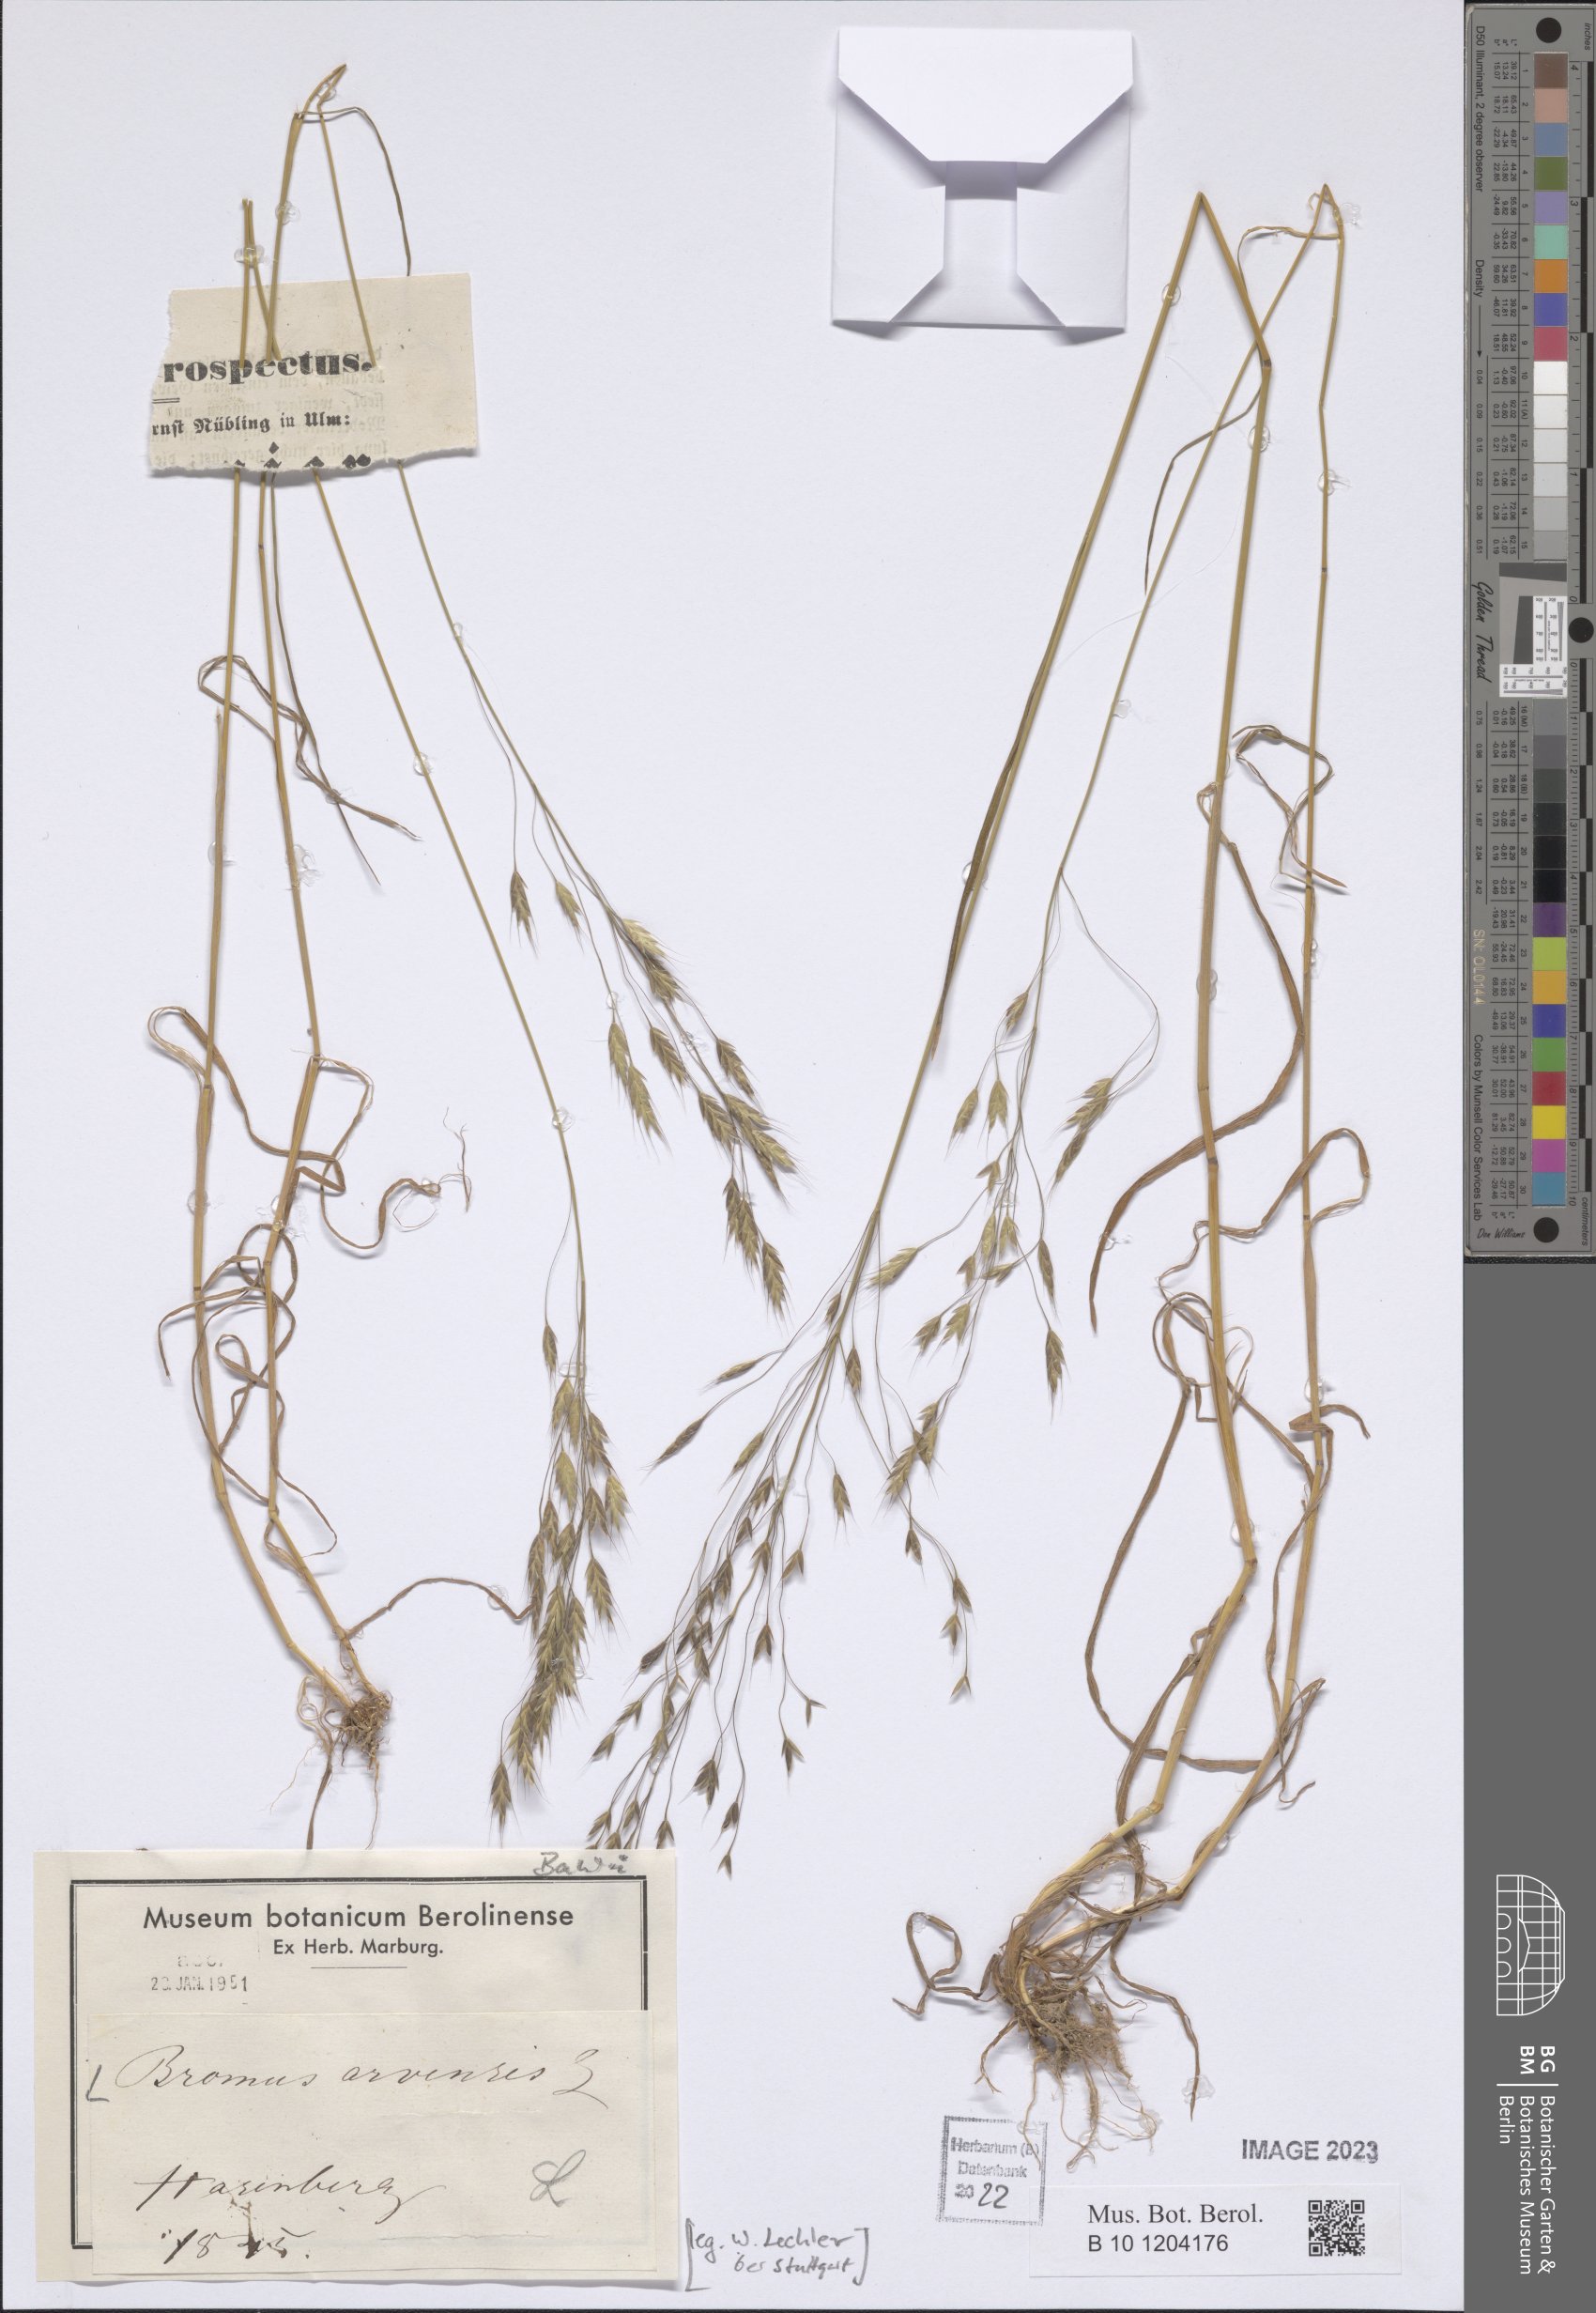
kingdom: Plantae
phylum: Tracheophyta
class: Liliopsida
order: Poales
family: Poaceae
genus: Bromus
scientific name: Bromus arvensis
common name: Field brome
